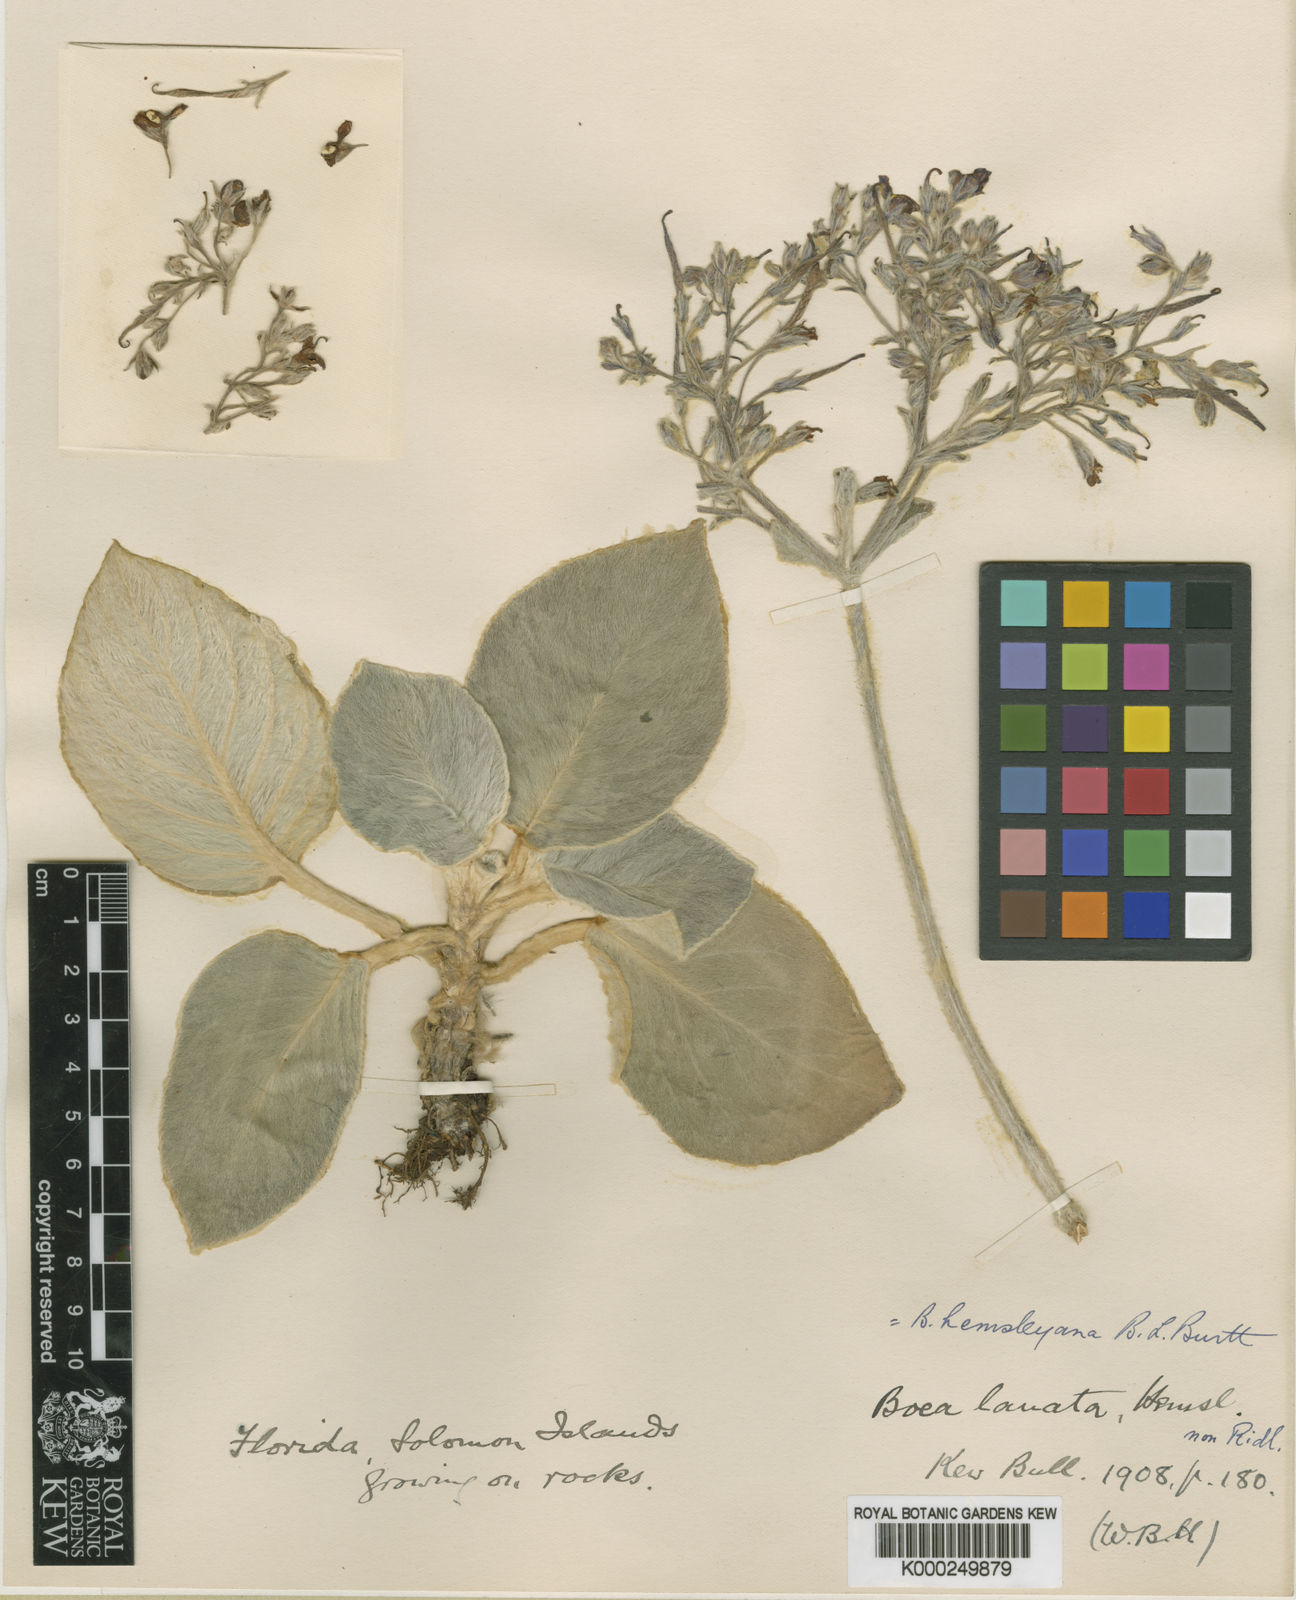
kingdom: Plantae
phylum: Tracheophyta
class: Magnoliopsida
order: Lamiales
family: Gesneriaceae
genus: Boea
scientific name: Boea hemsleyana
